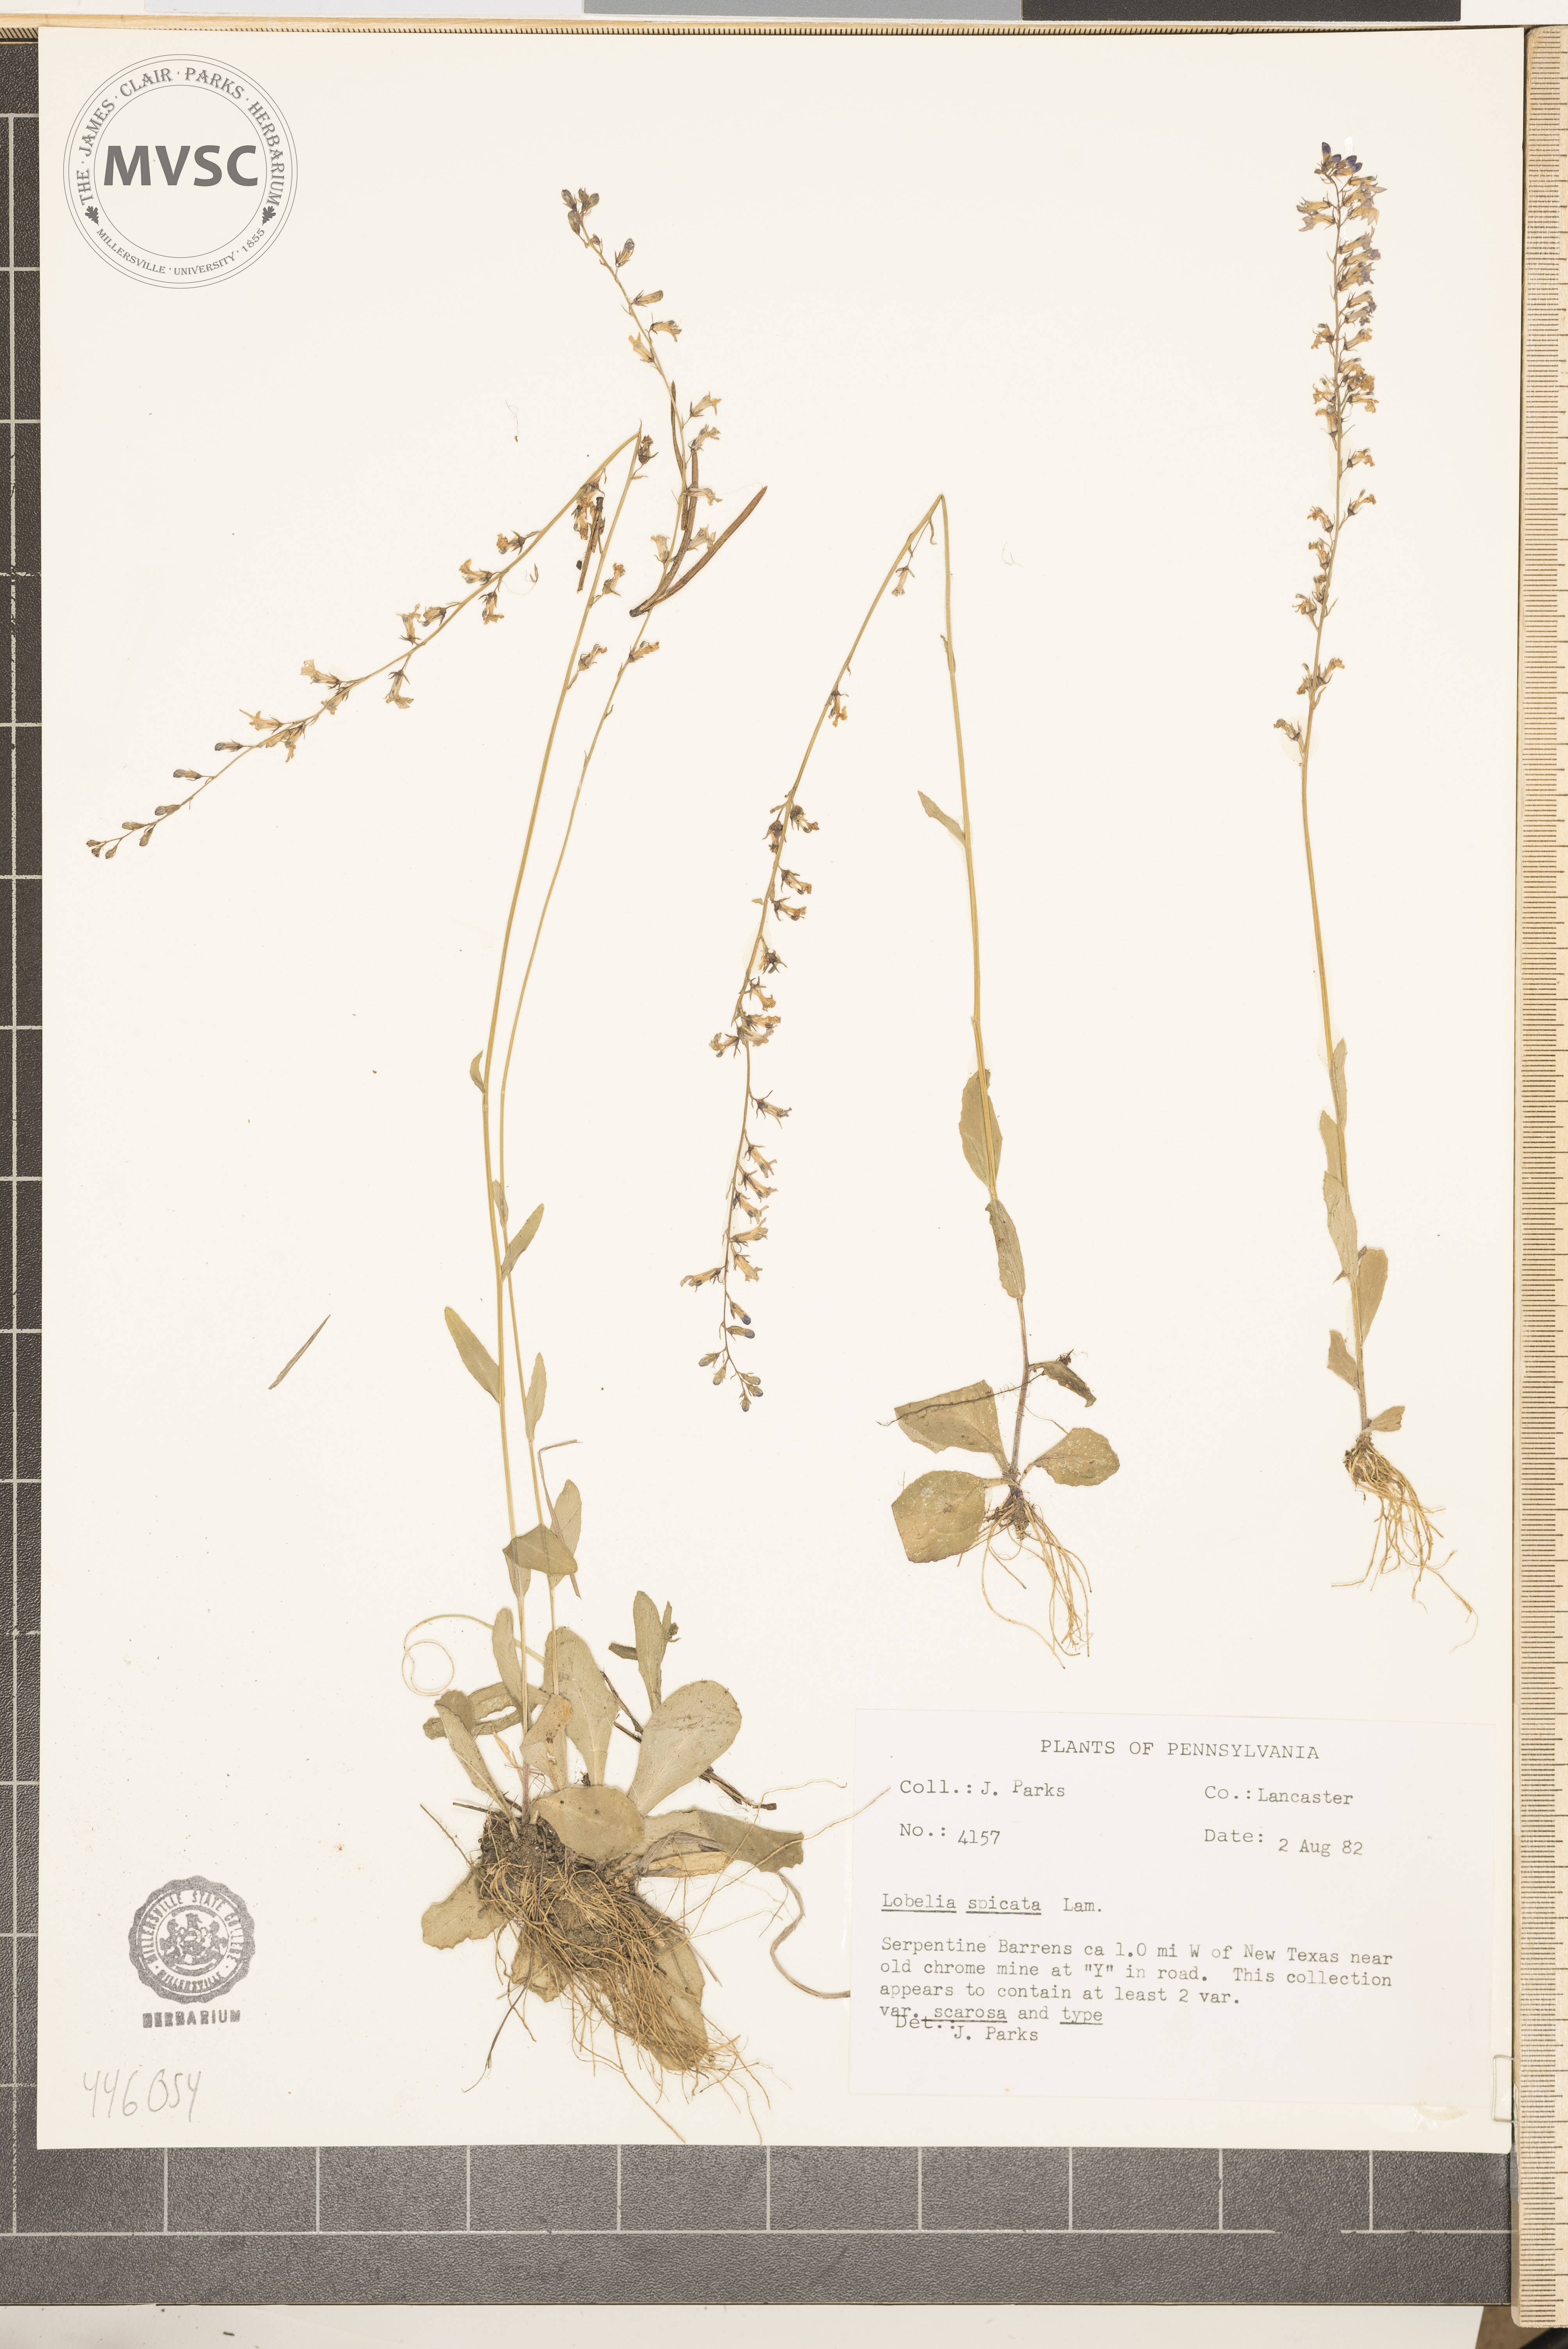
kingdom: Plantae
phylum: Tracheophyta
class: Magnoliopsida
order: Asterales
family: Campanulaceae
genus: Lobelia
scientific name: Lobelia spicata
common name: Pale-spike lobelia
